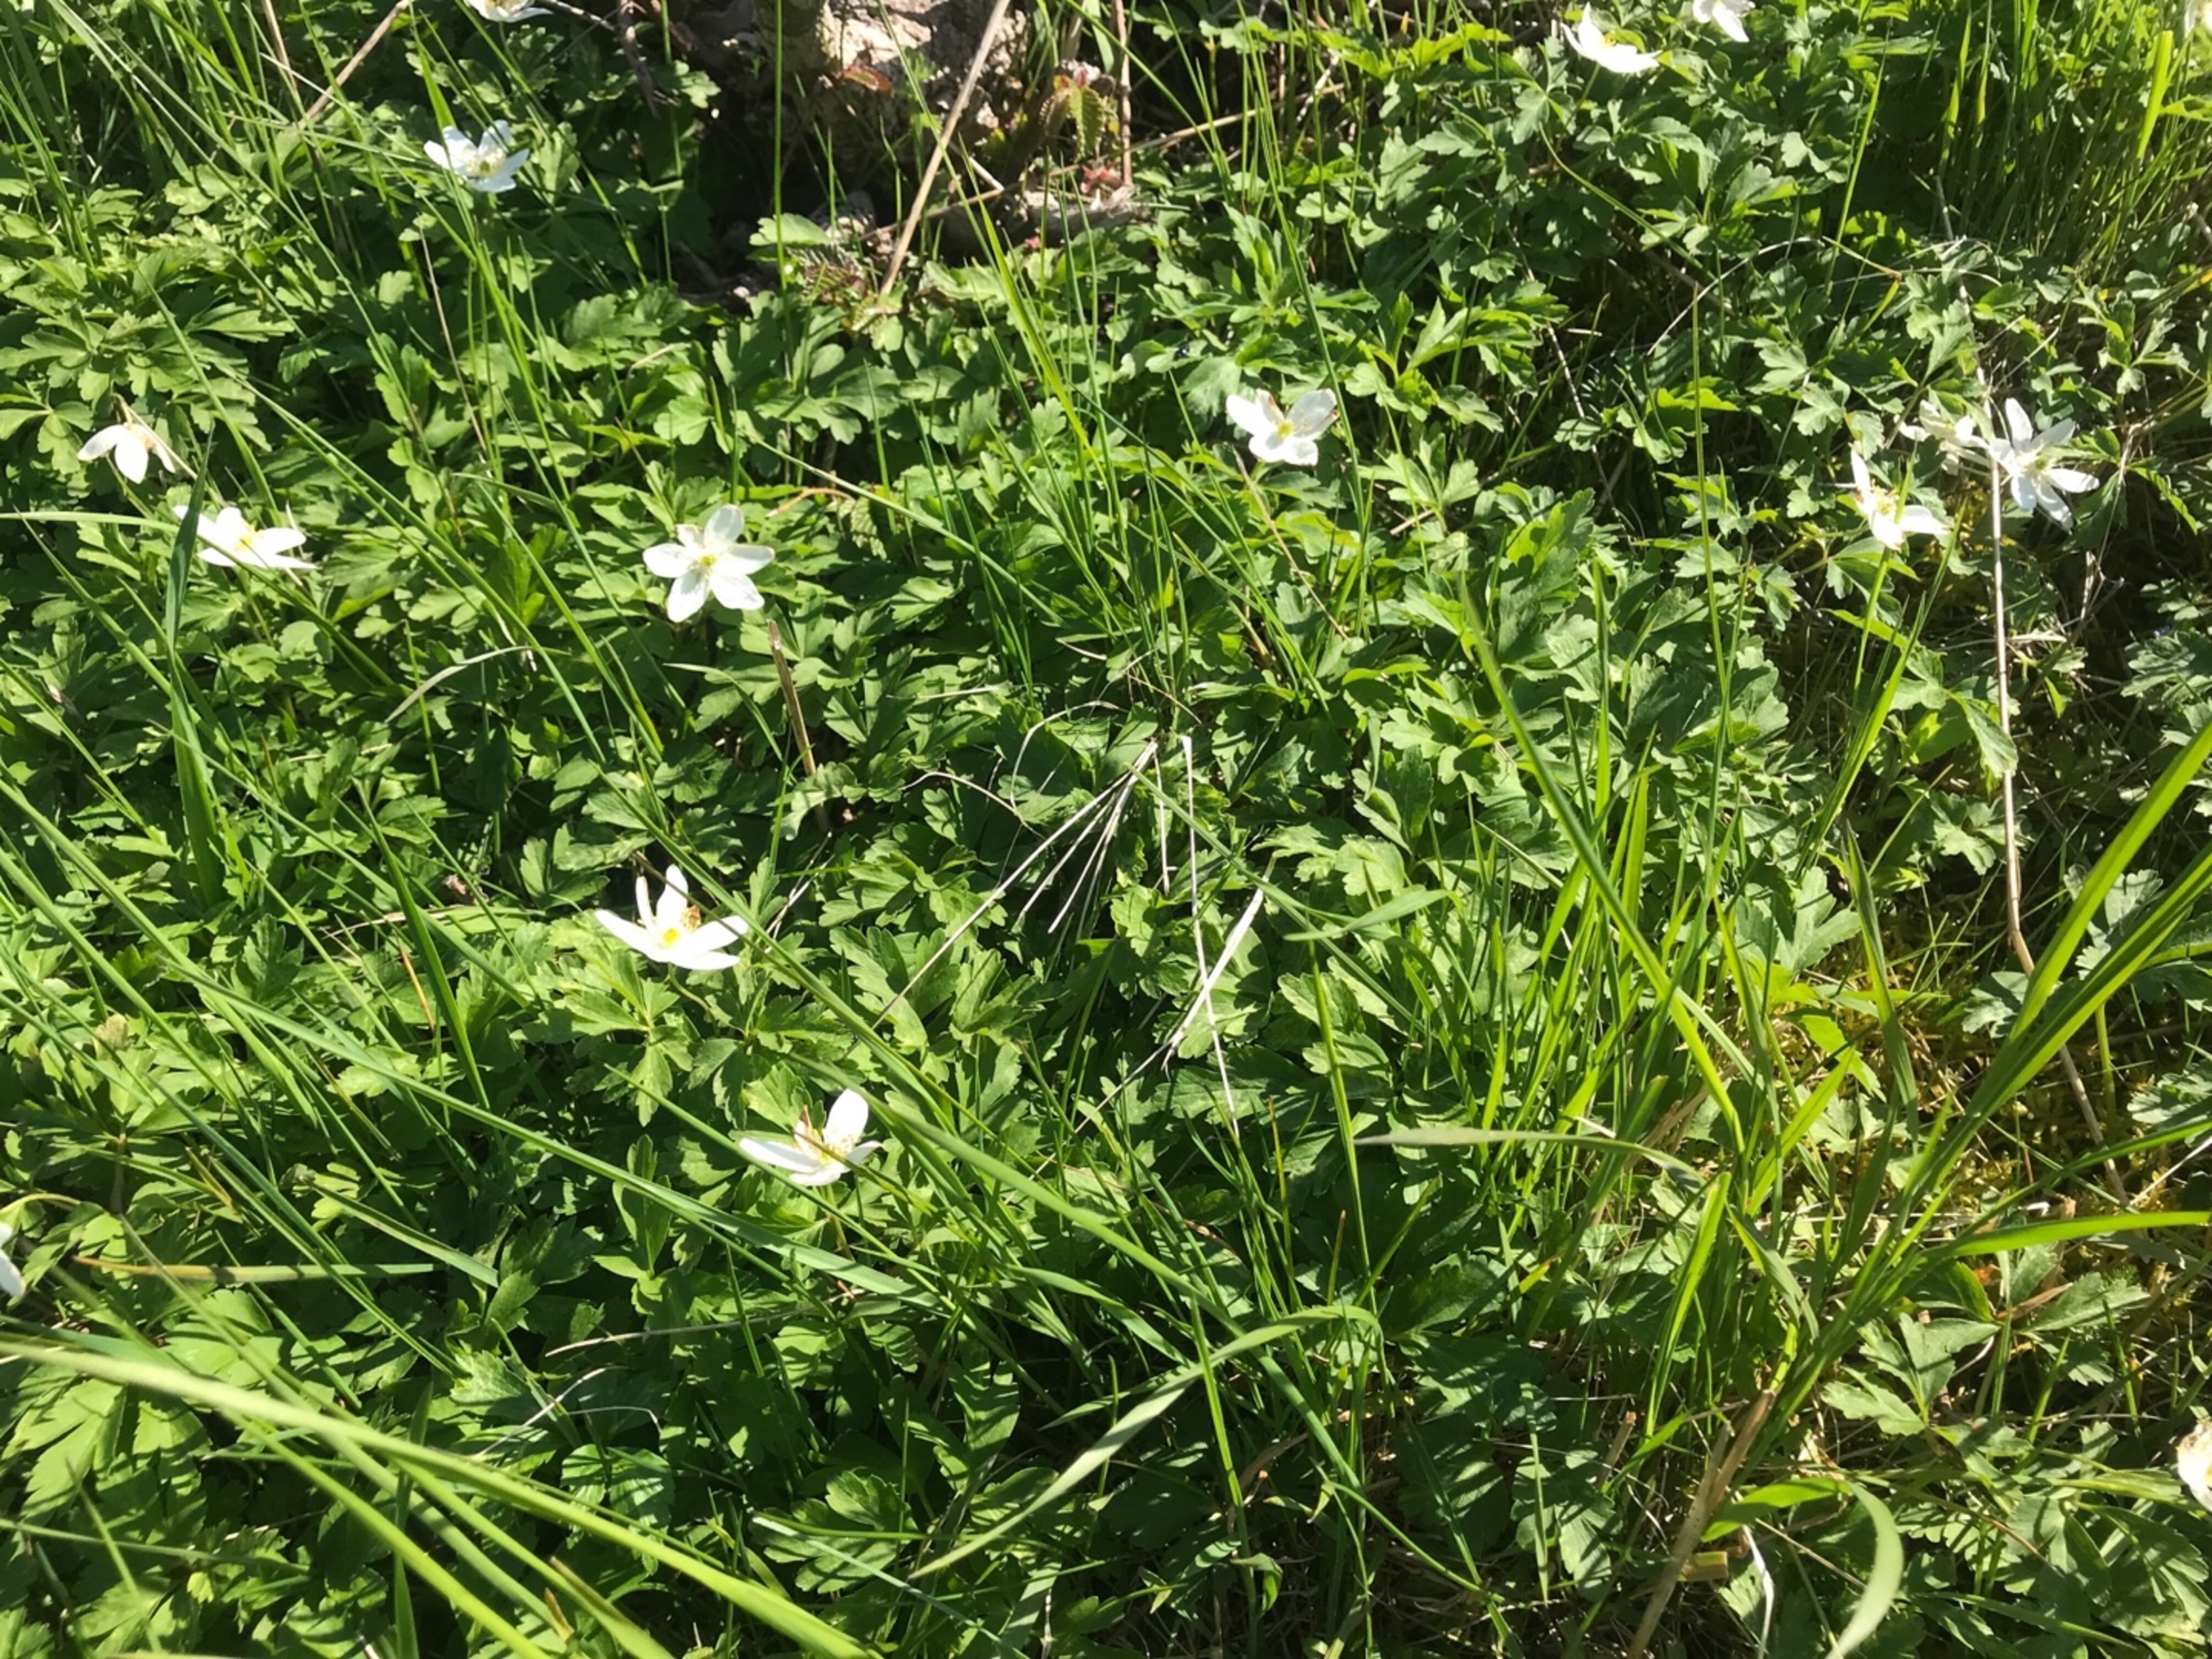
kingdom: Plantae
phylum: Tracheophyta
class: Magnoliopsida
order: Ranunculales
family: Ranunculaceae
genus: Anemone
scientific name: Anemone nemorosa
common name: Hvid anemone
